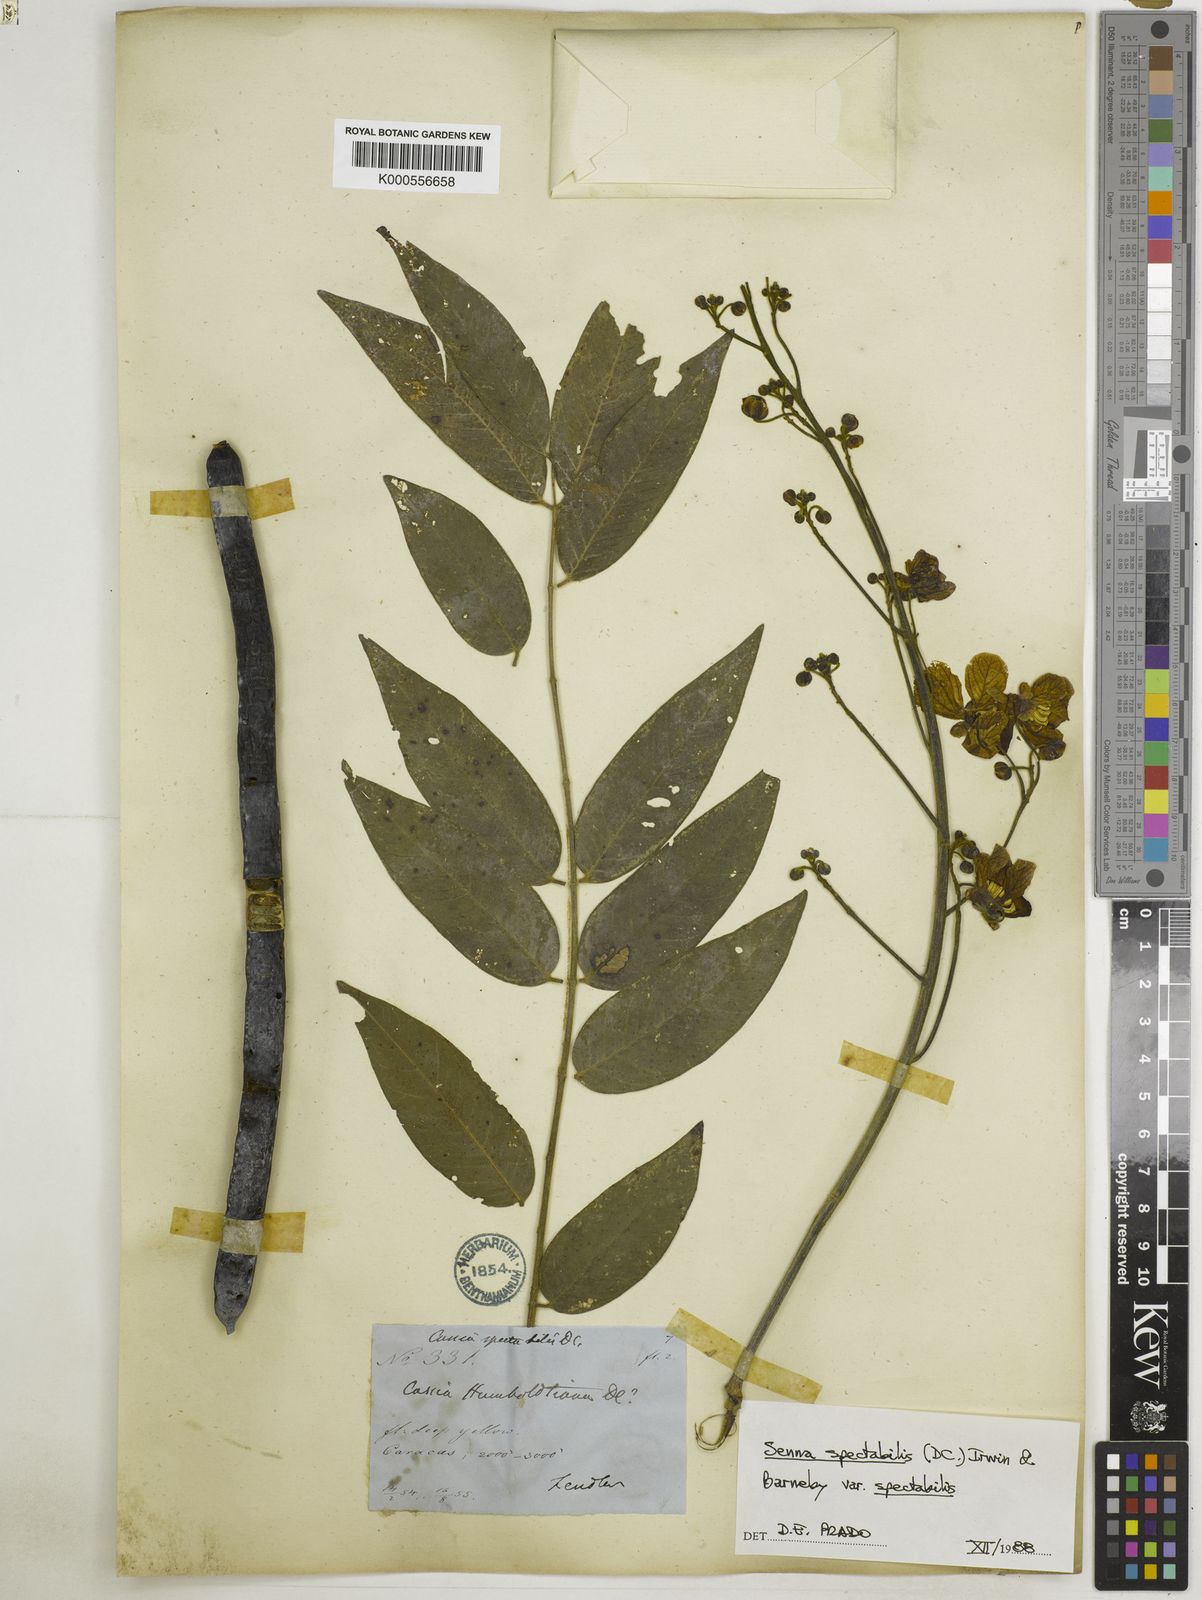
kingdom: Plantae
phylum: Tracheophyta
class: Magnoliopsida
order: Fabales
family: Fabaceae
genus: Senna
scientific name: Senna spectabilis
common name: Casia amarilla
